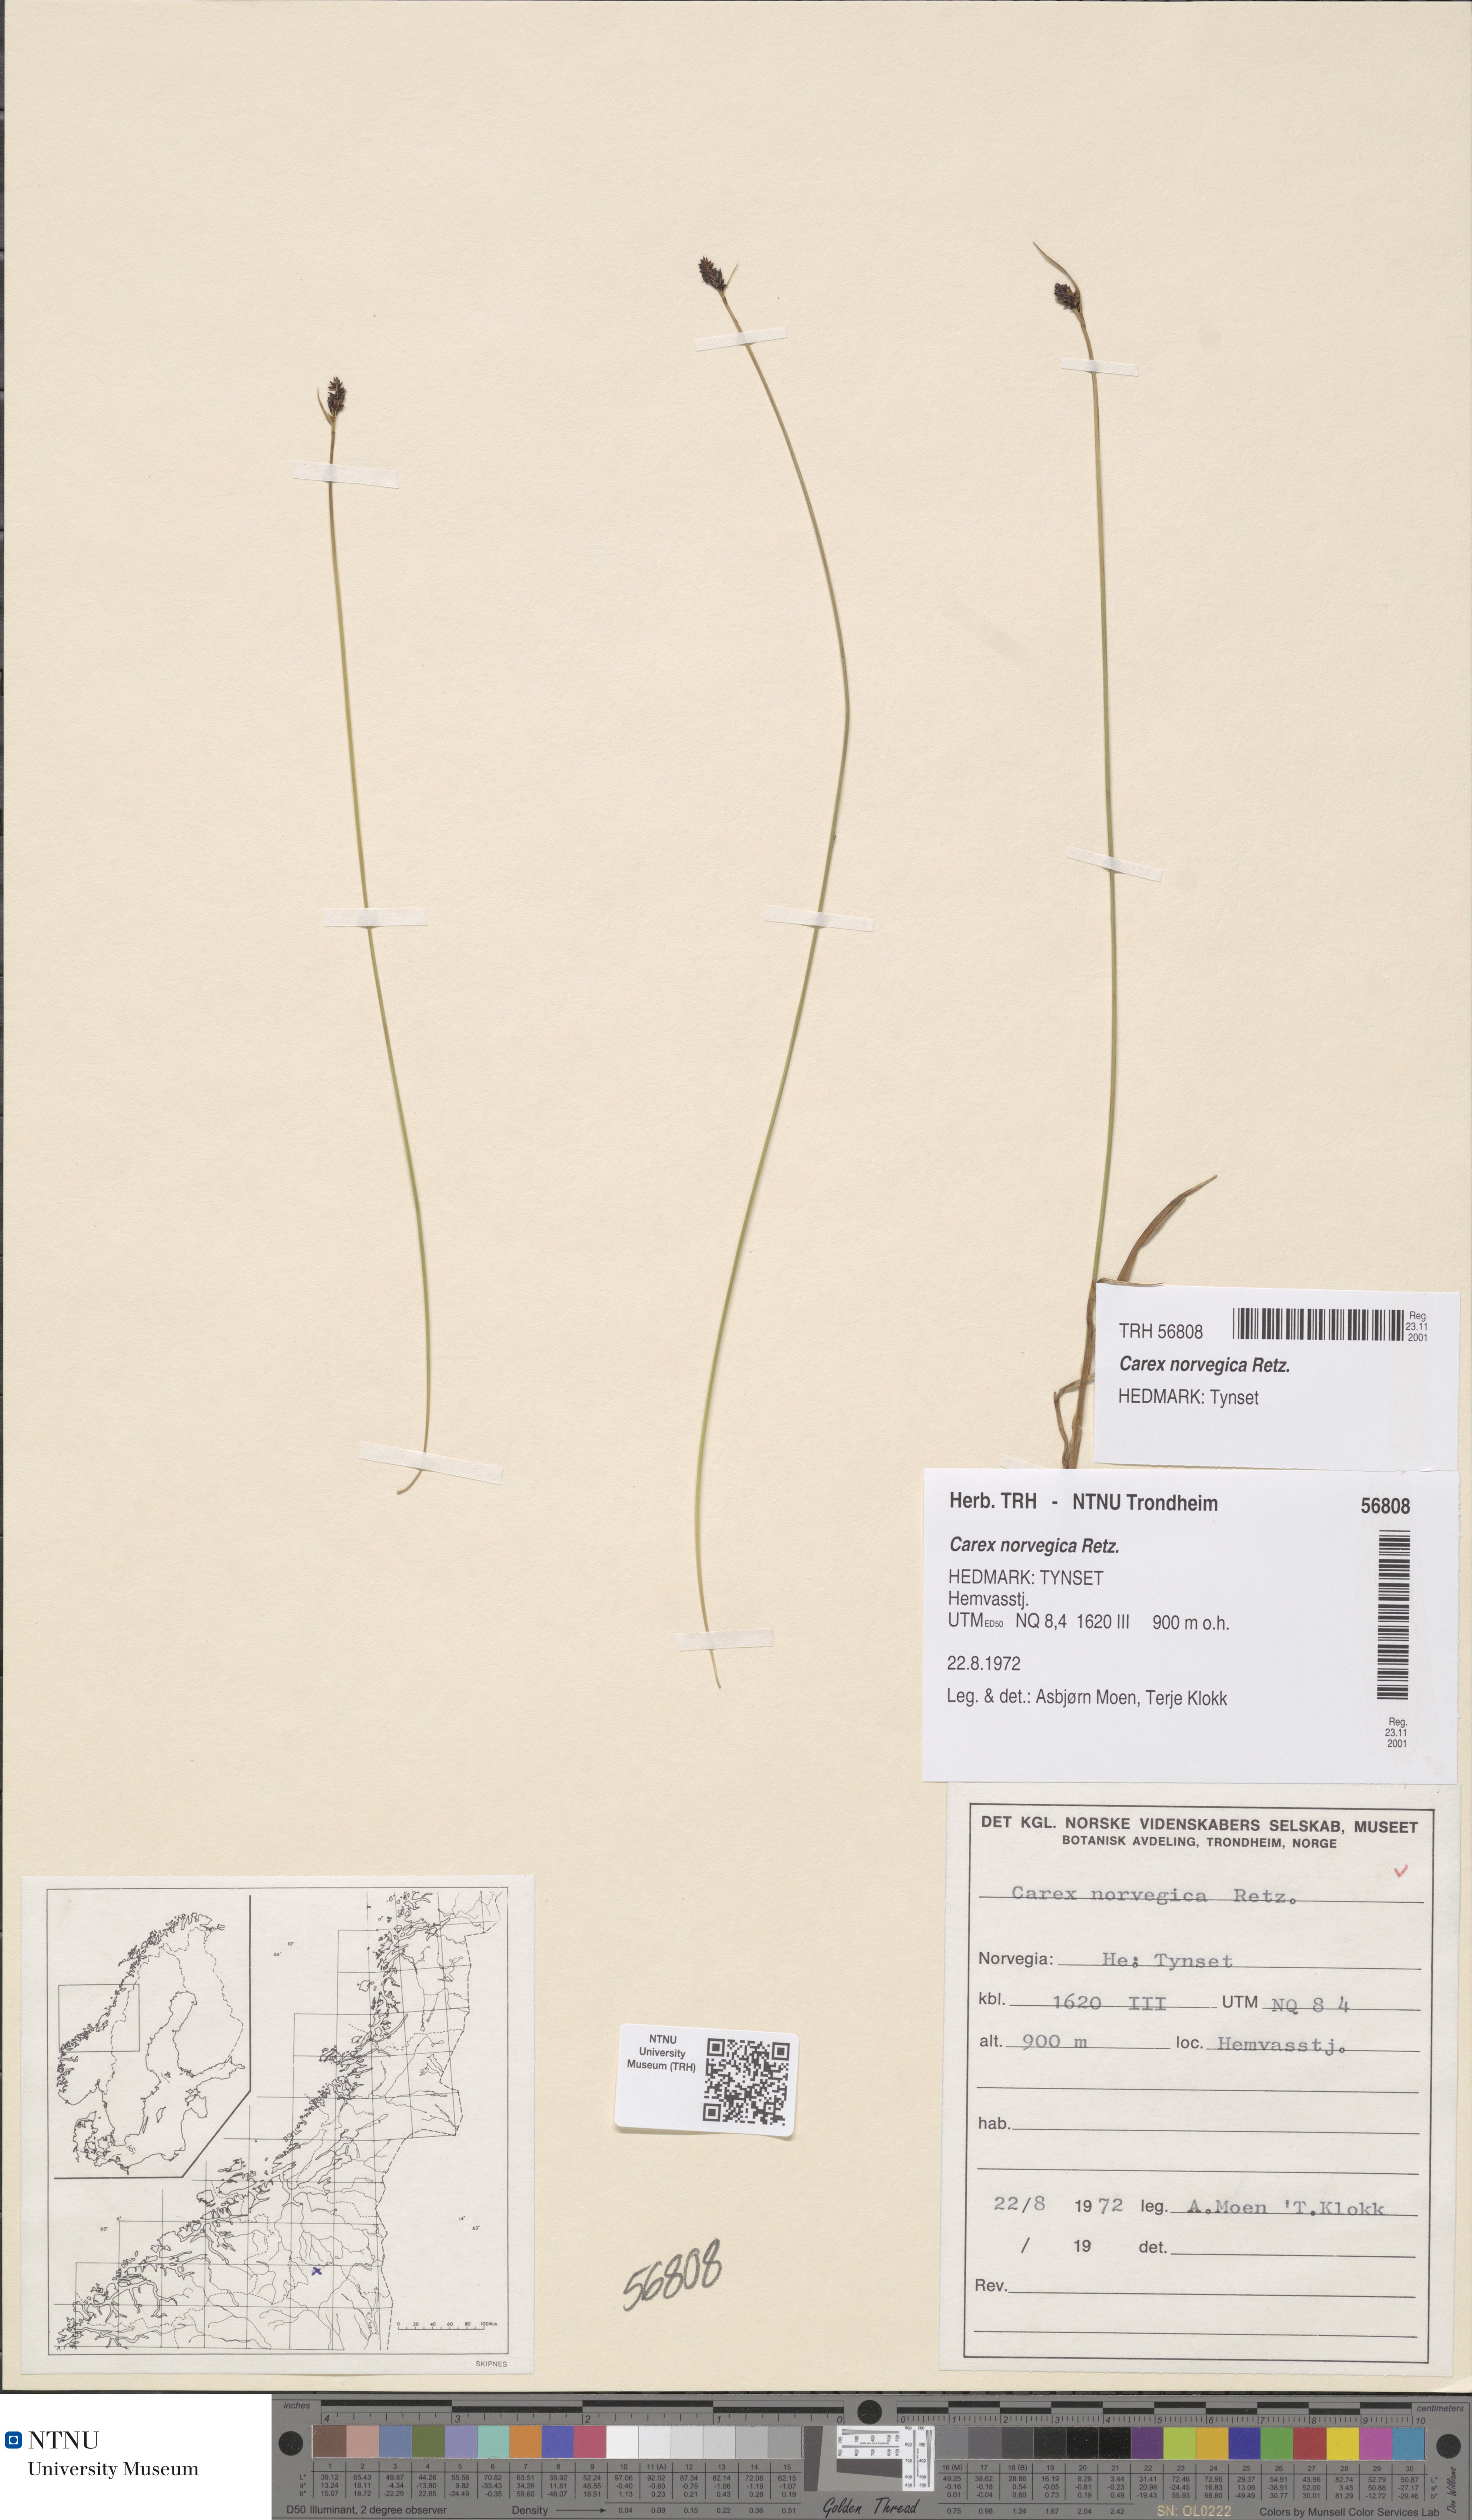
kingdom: Plantae
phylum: Tracheophyta
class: Liliopsida
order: Poales
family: Cyperaceae
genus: Carex
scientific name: Carex norvegica
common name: Close-headed alpine-sedge
